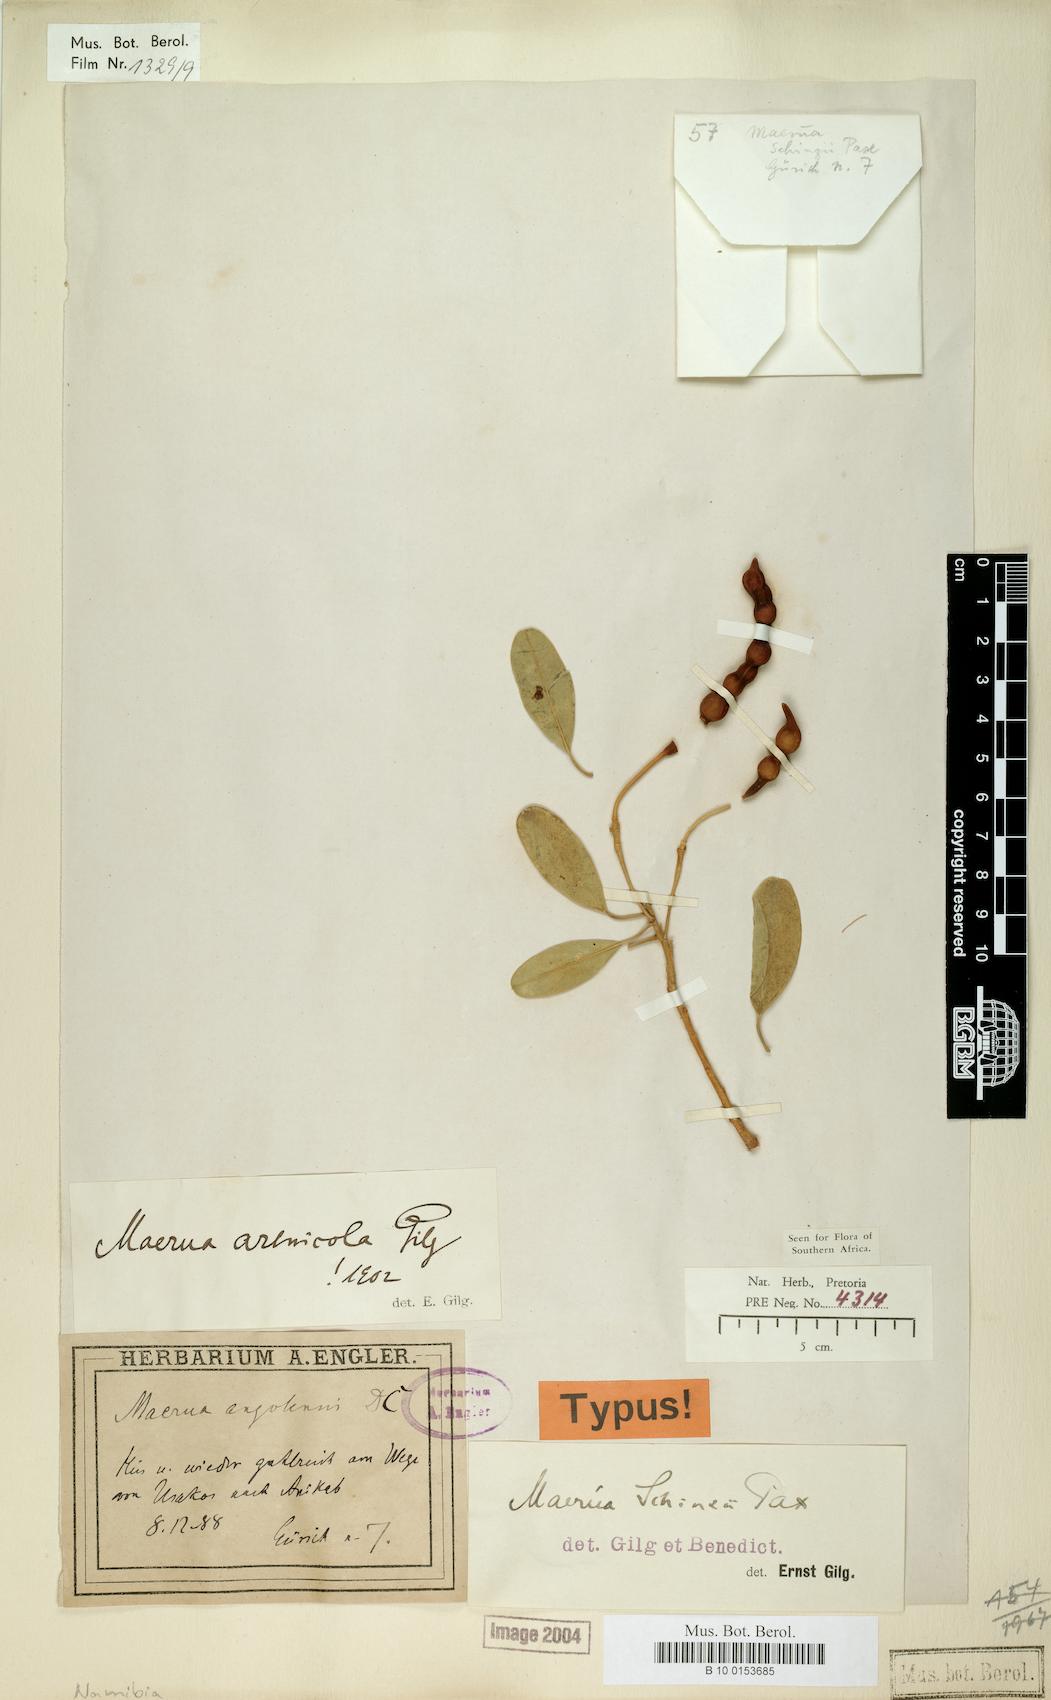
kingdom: Plantae
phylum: Tracheophyta
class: Magnoliopsida
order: Brassicales
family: Capparaceae
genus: Maerua
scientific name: Maerua schinzii
